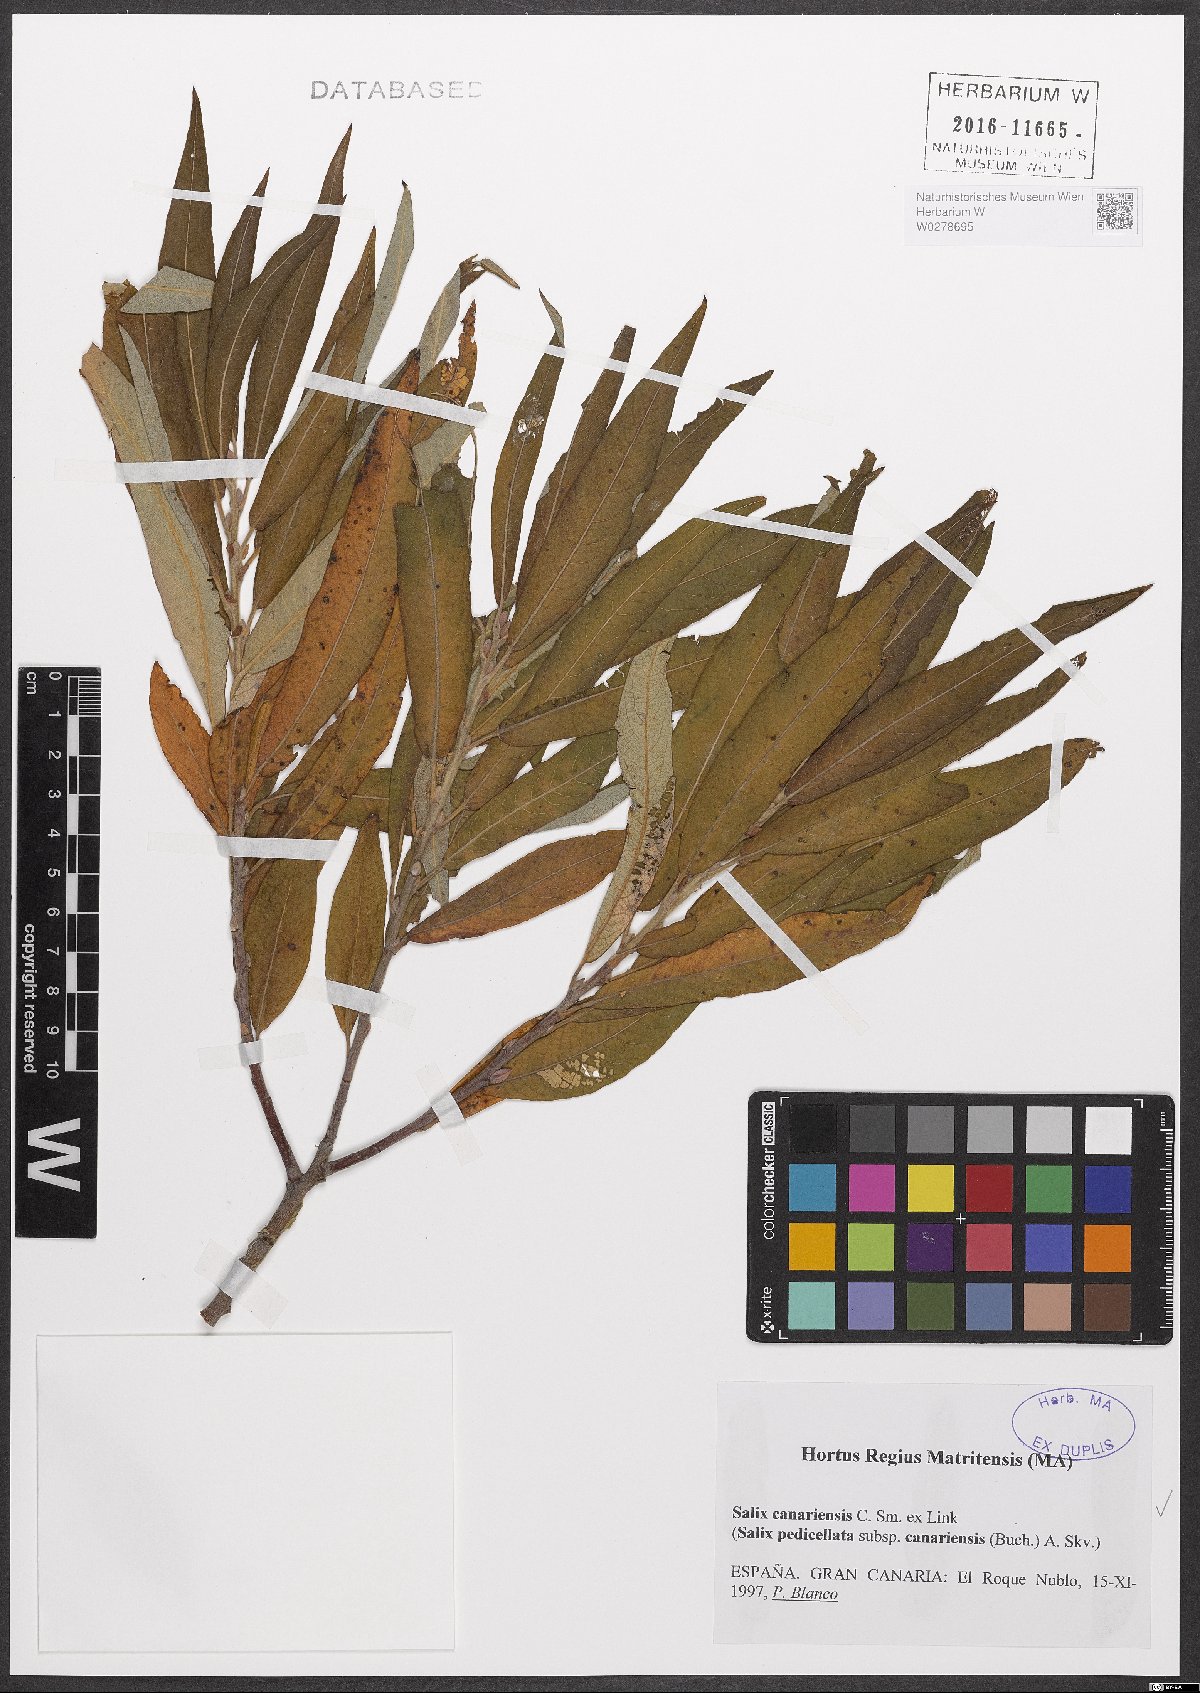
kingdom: Plantae
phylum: Tracheophyta
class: Magnoliopsida
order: Malpighiales
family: Salicaceae
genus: Salix
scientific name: Salix canariensis
